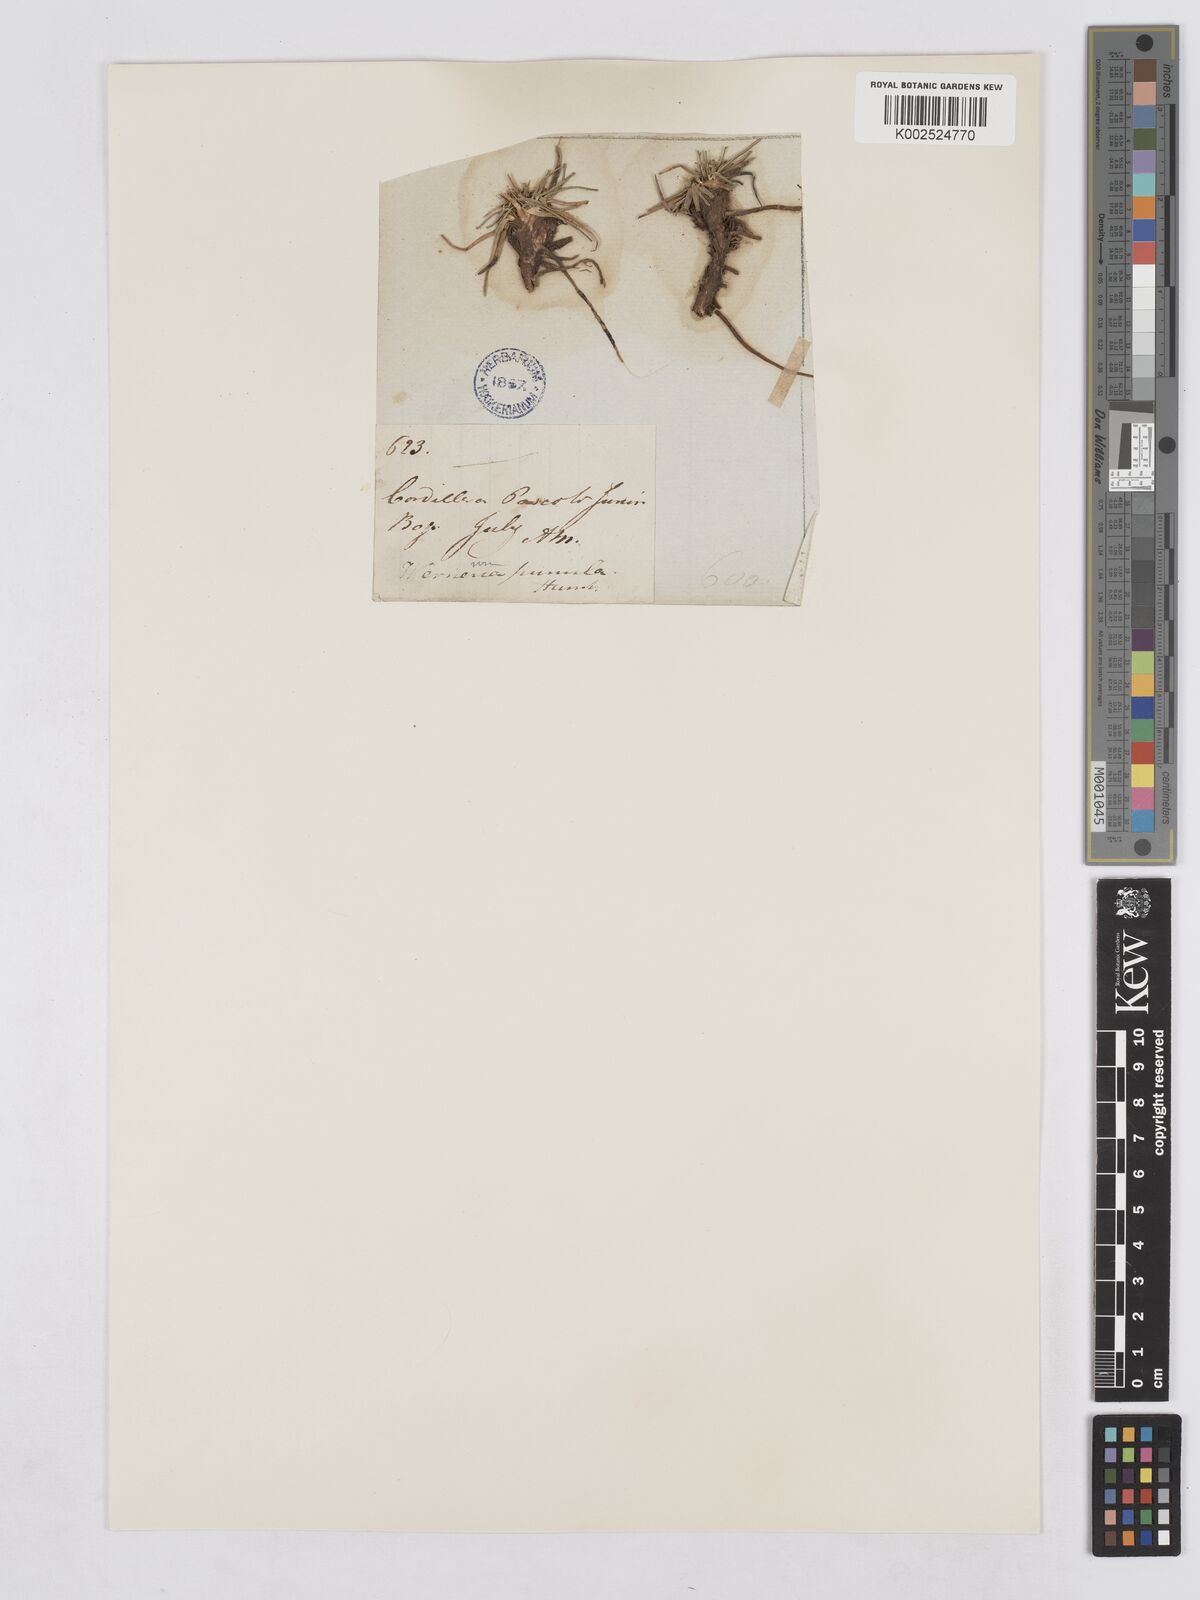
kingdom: Plantae
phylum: Tracheophyta
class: Magnoliopsida
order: Asterales
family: Asteraceae
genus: Rockhausenia
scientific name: Rockhausenia apiculata
